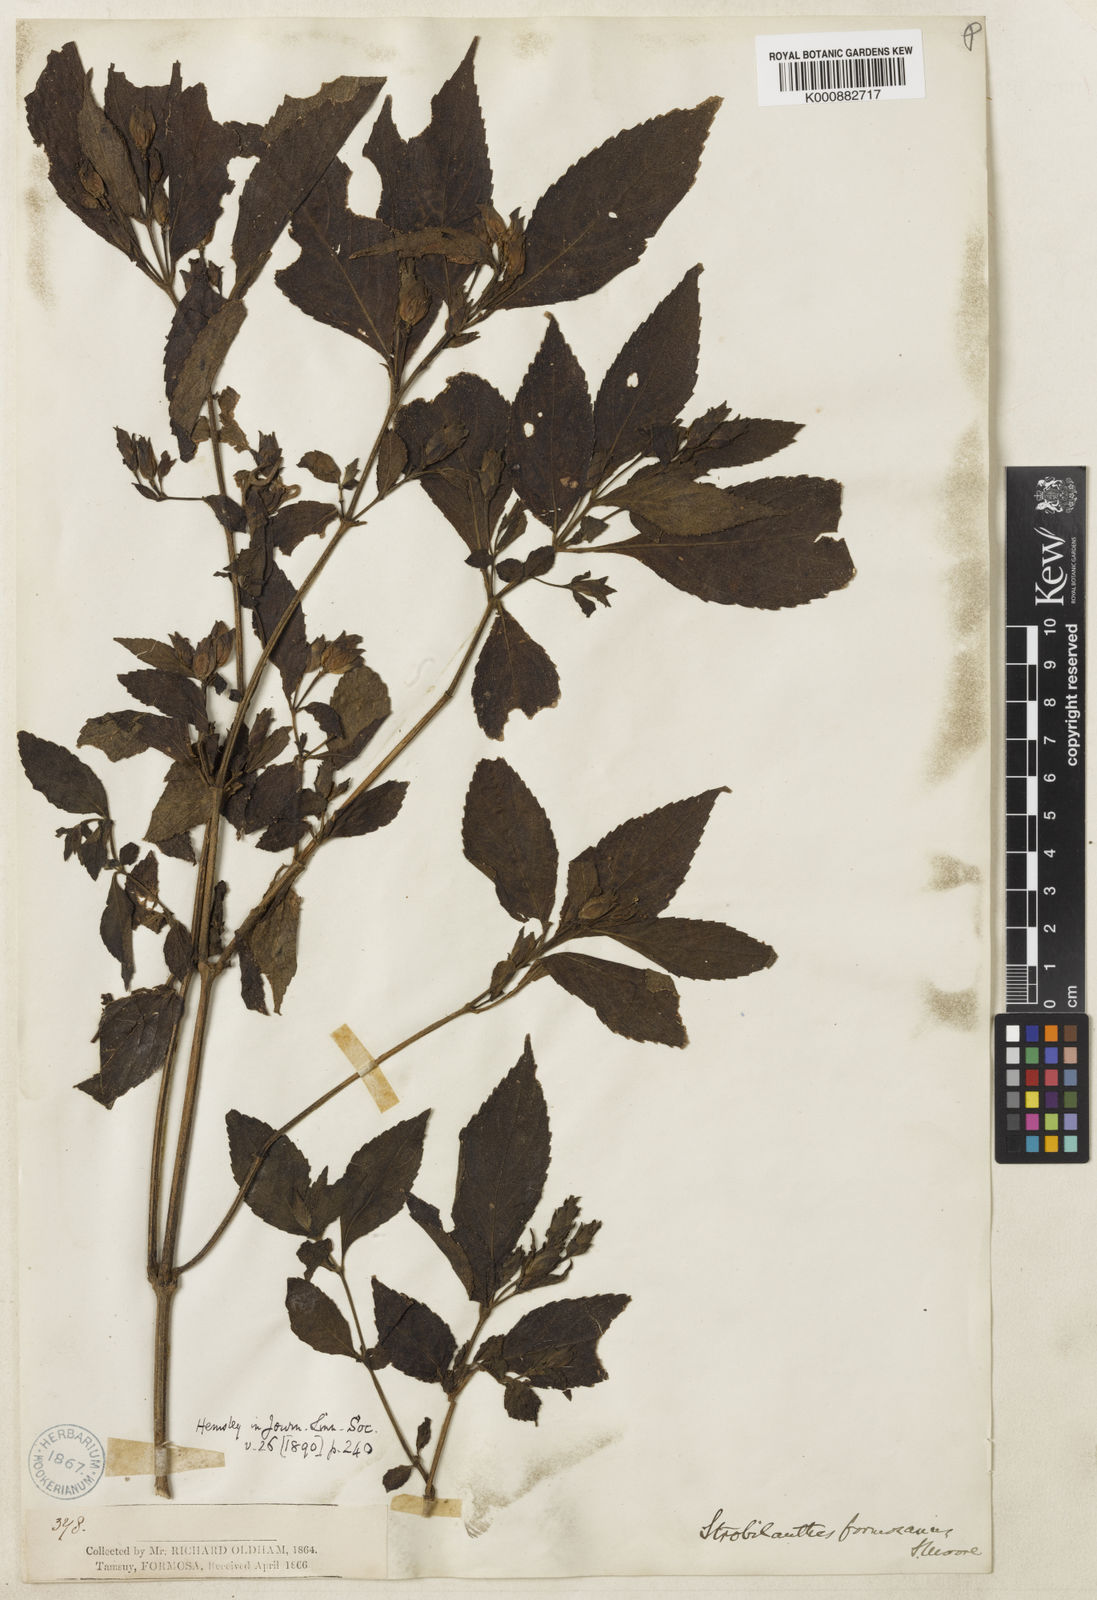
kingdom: Plantae
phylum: Tracheophyta
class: Magnoliopsida
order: Lamiales
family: Acanthaceae
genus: Strobilanthes
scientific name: Strobilanthes formosana
